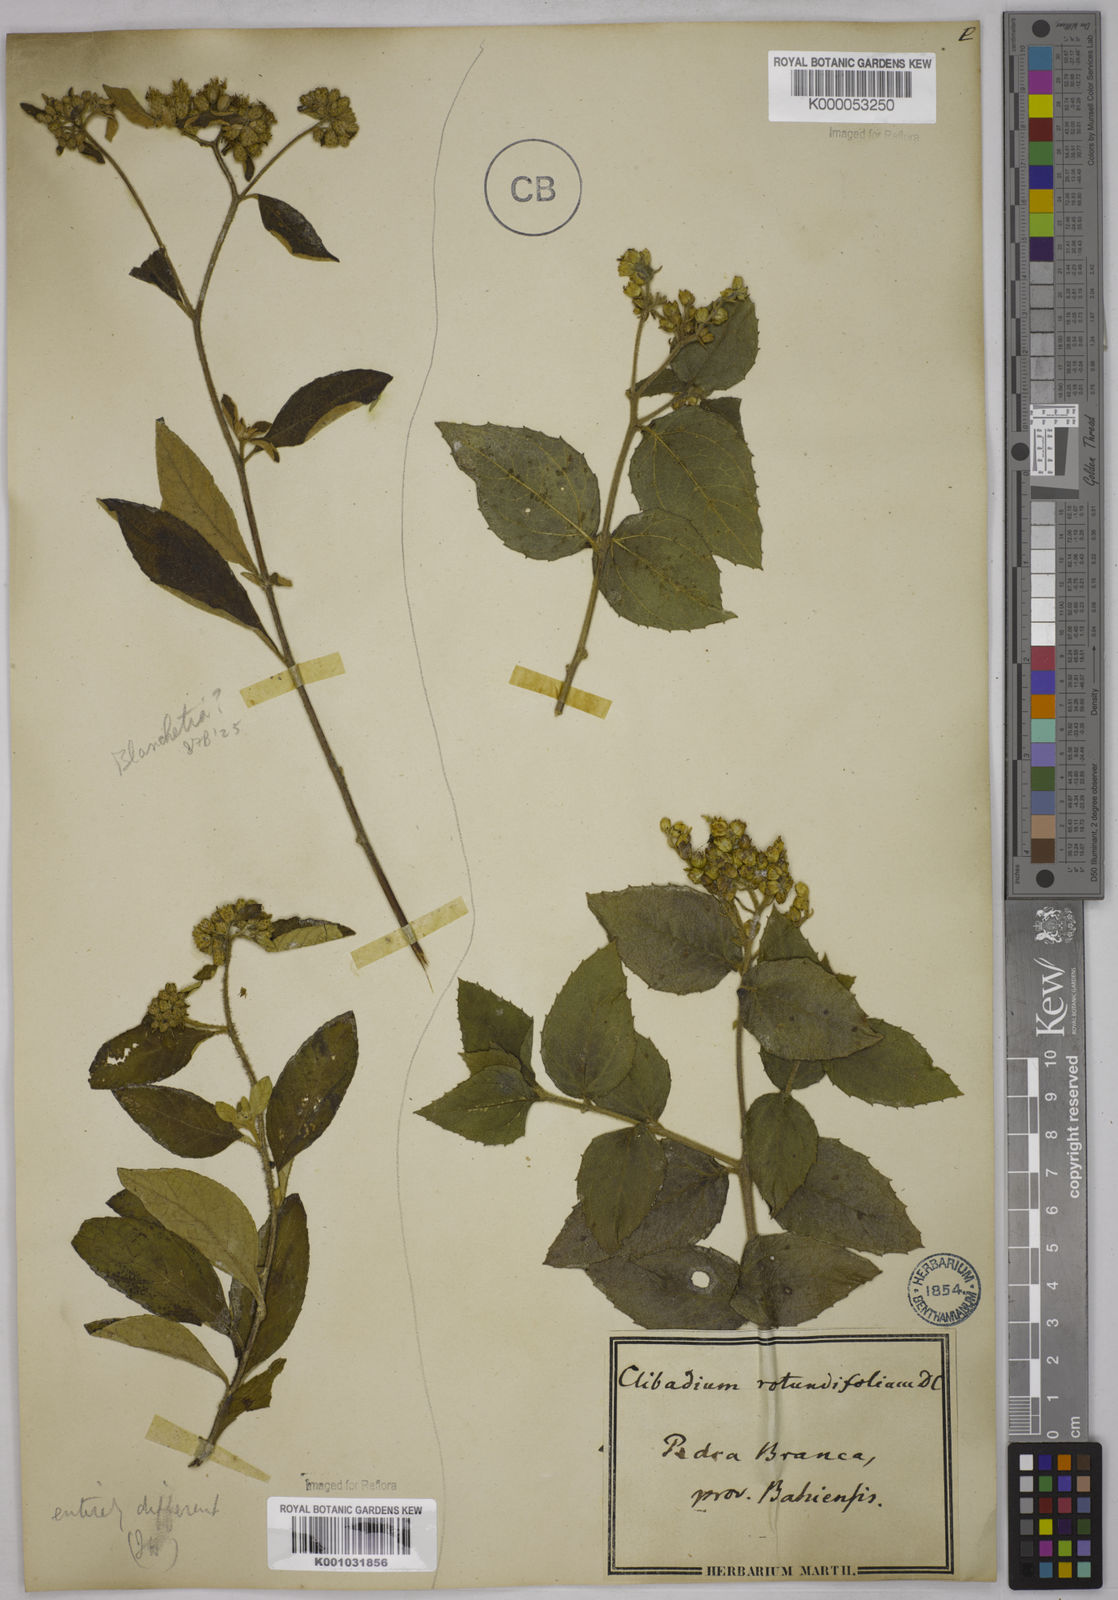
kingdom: Plantae
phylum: Tracheophyta
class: Magnoliopsida
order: Asterales
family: Asteraceae
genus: Clibadium
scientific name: Clibadium armanii
